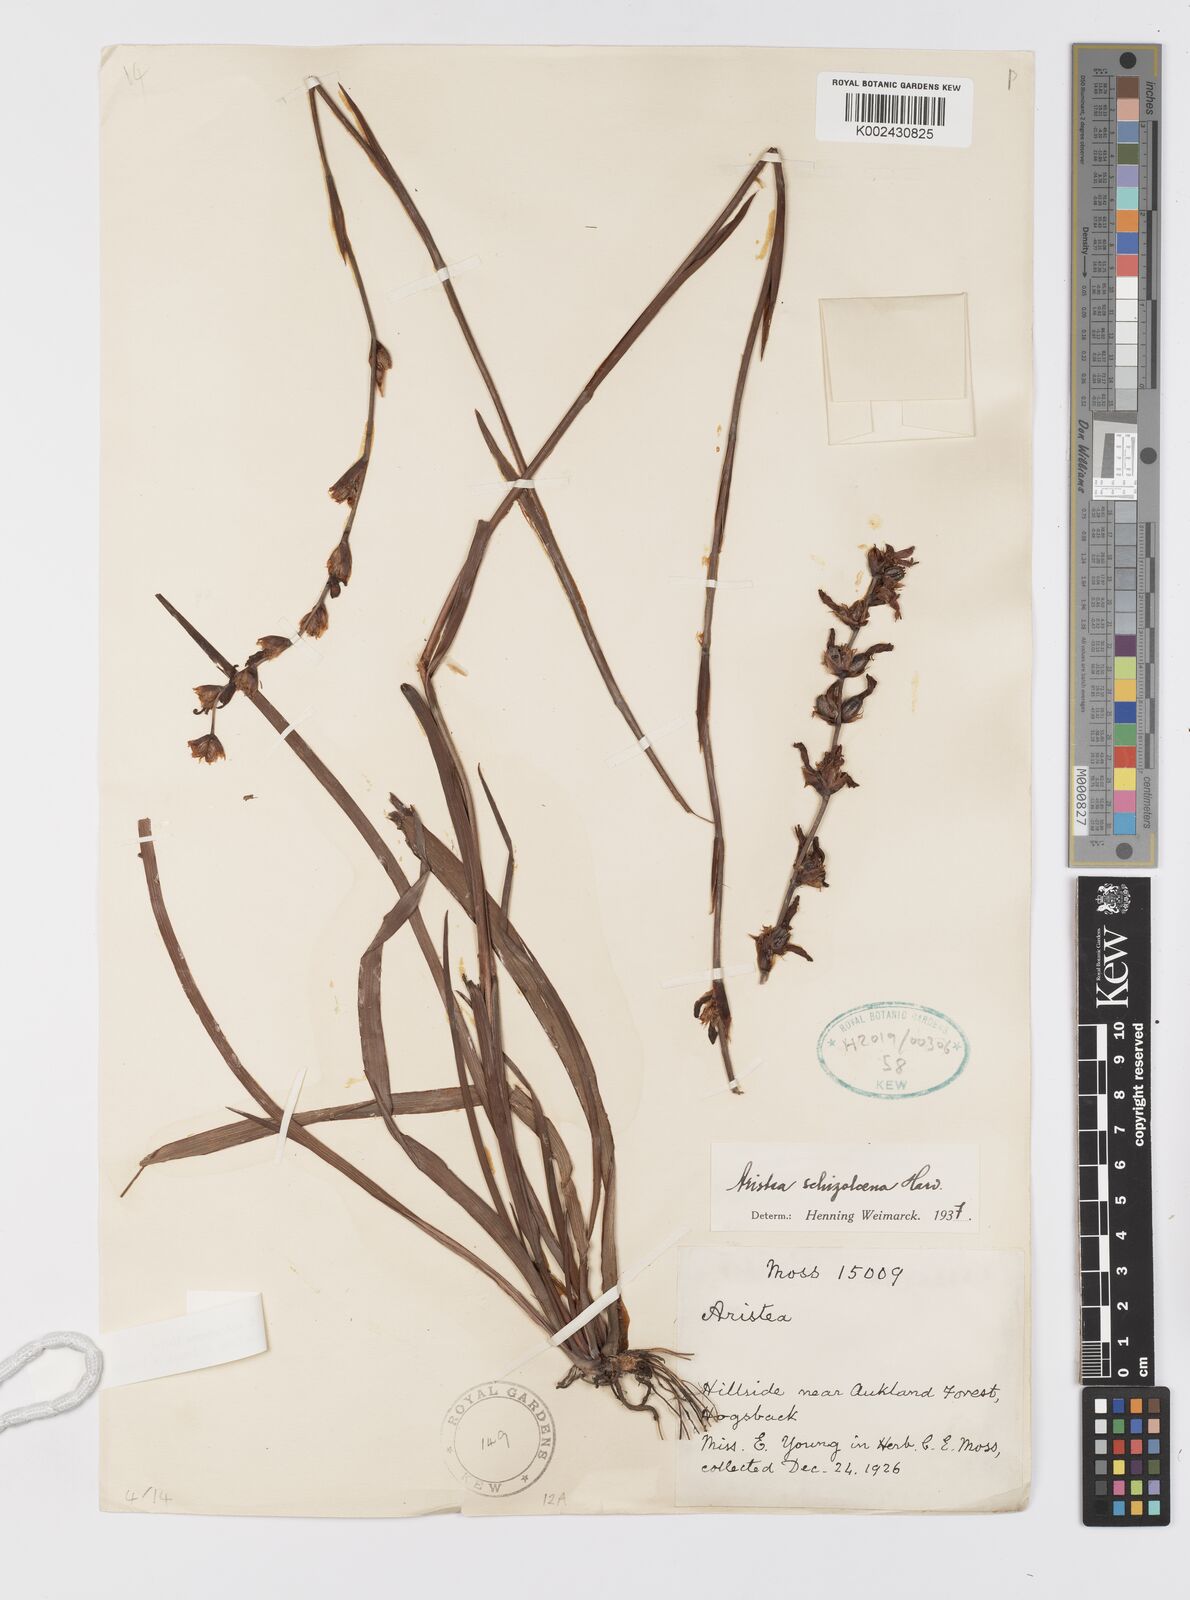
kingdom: Plantae
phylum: Tracheophyta
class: Liliopsida
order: Asparagales
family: Iridaceae
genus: Aristea
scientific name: Aristea schizolaena
